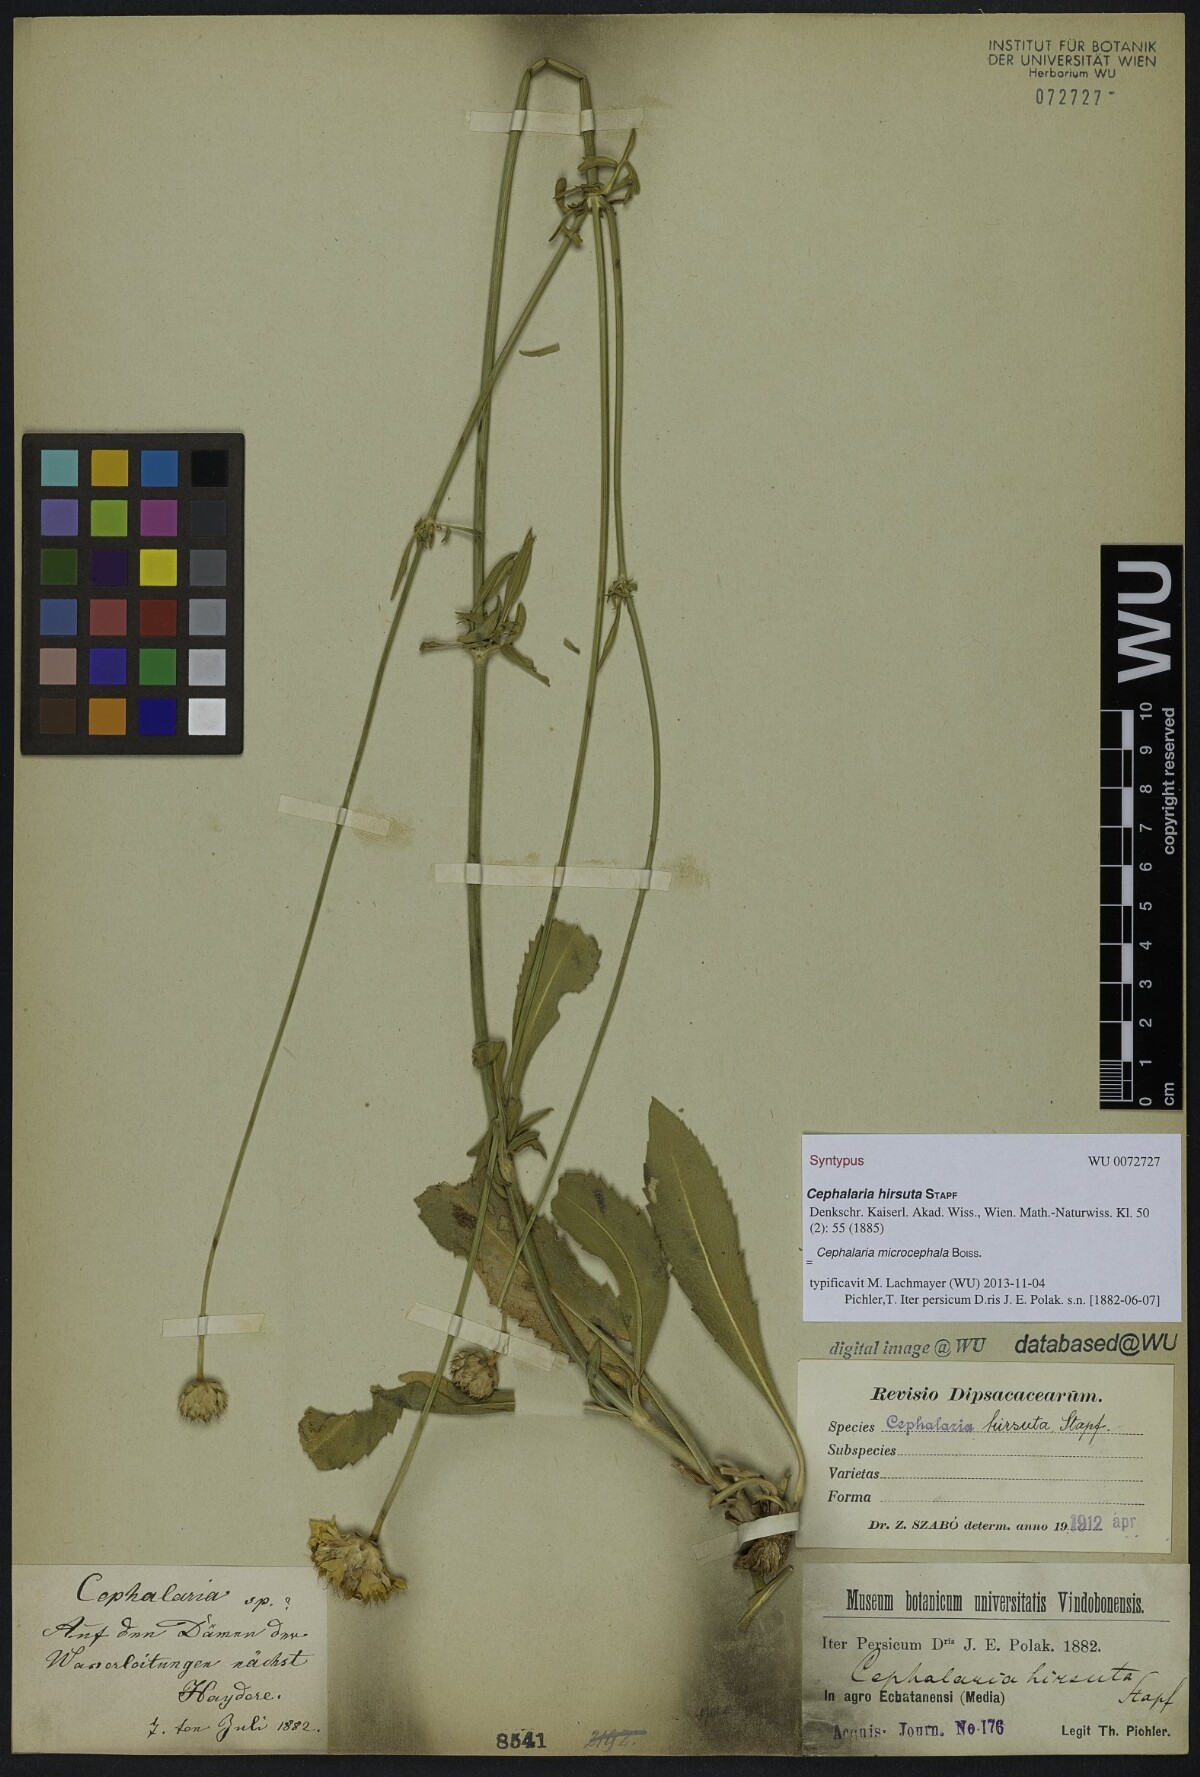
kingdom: Plantae
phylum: Tracheophyta
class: Magnoliopsida
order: Dipsacales
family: Caprifoliaceae
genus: Cephalaria
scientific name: Cephalaria hirsuta
